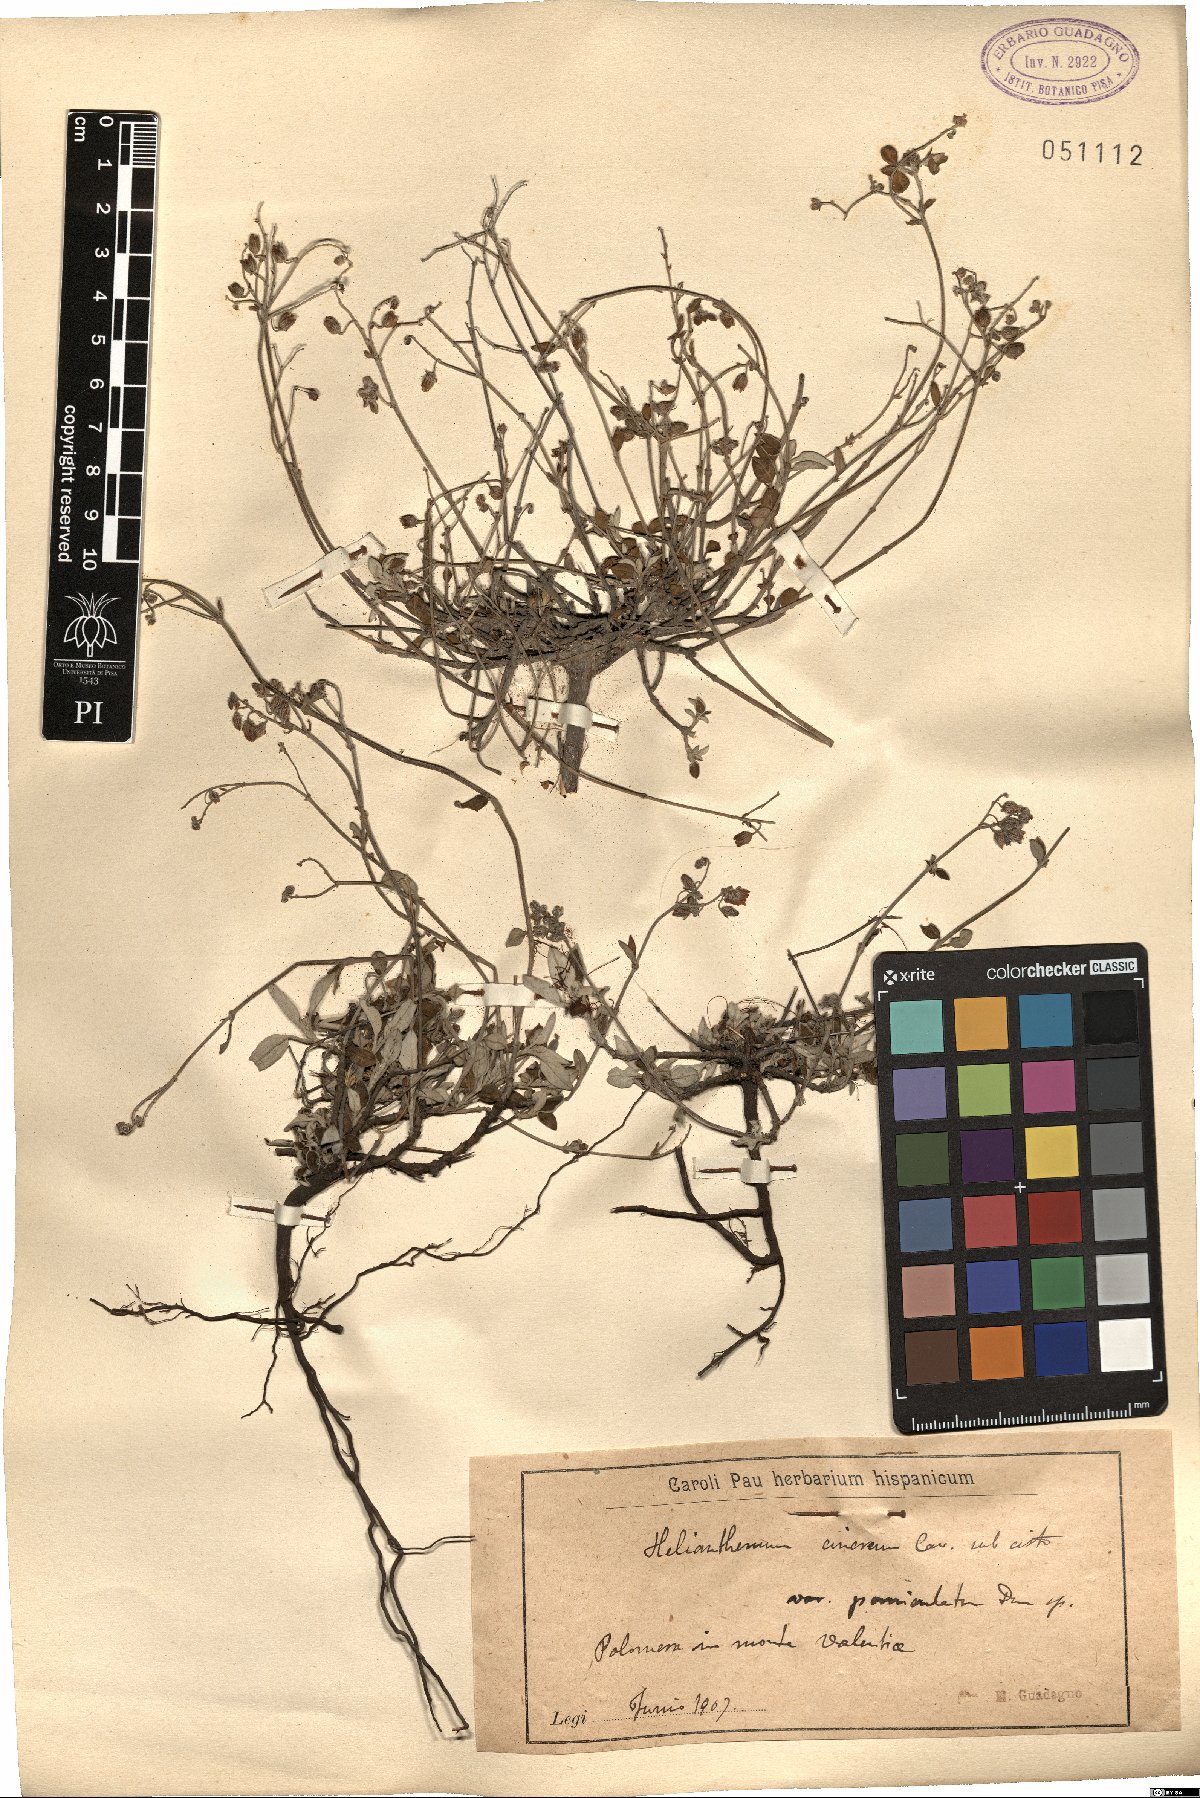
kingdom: Plantae
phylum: Tracheophyta
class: Magnoliopsida
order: Malvales
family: Cistaceae
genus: Helianthemum
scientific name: Helianthemum cinereum
